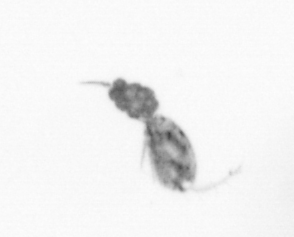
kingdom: Animalia
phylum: Arthropoda
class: Copepoda
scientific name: Copepoda
